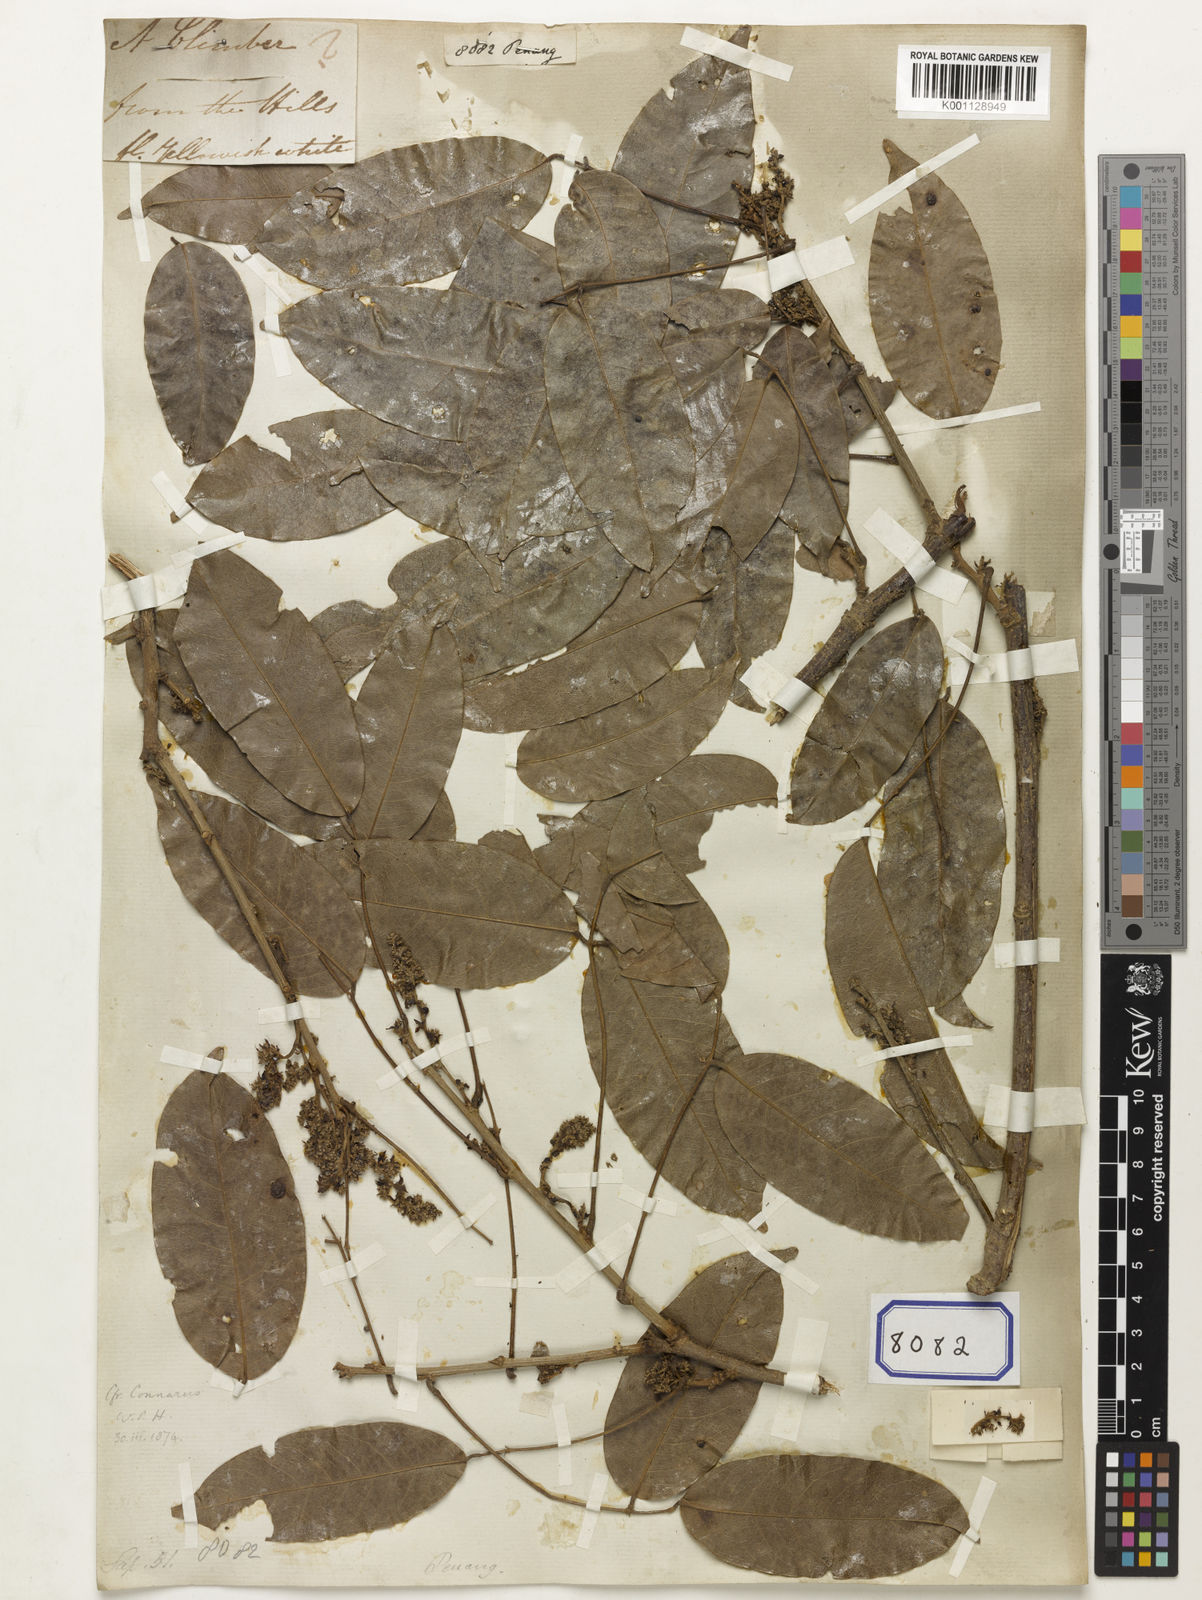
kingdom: Plantae
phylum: Tracheophyta
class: Magnoliopsida
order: Sapindales
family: Sapindaceae
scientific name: Sapindaceae
